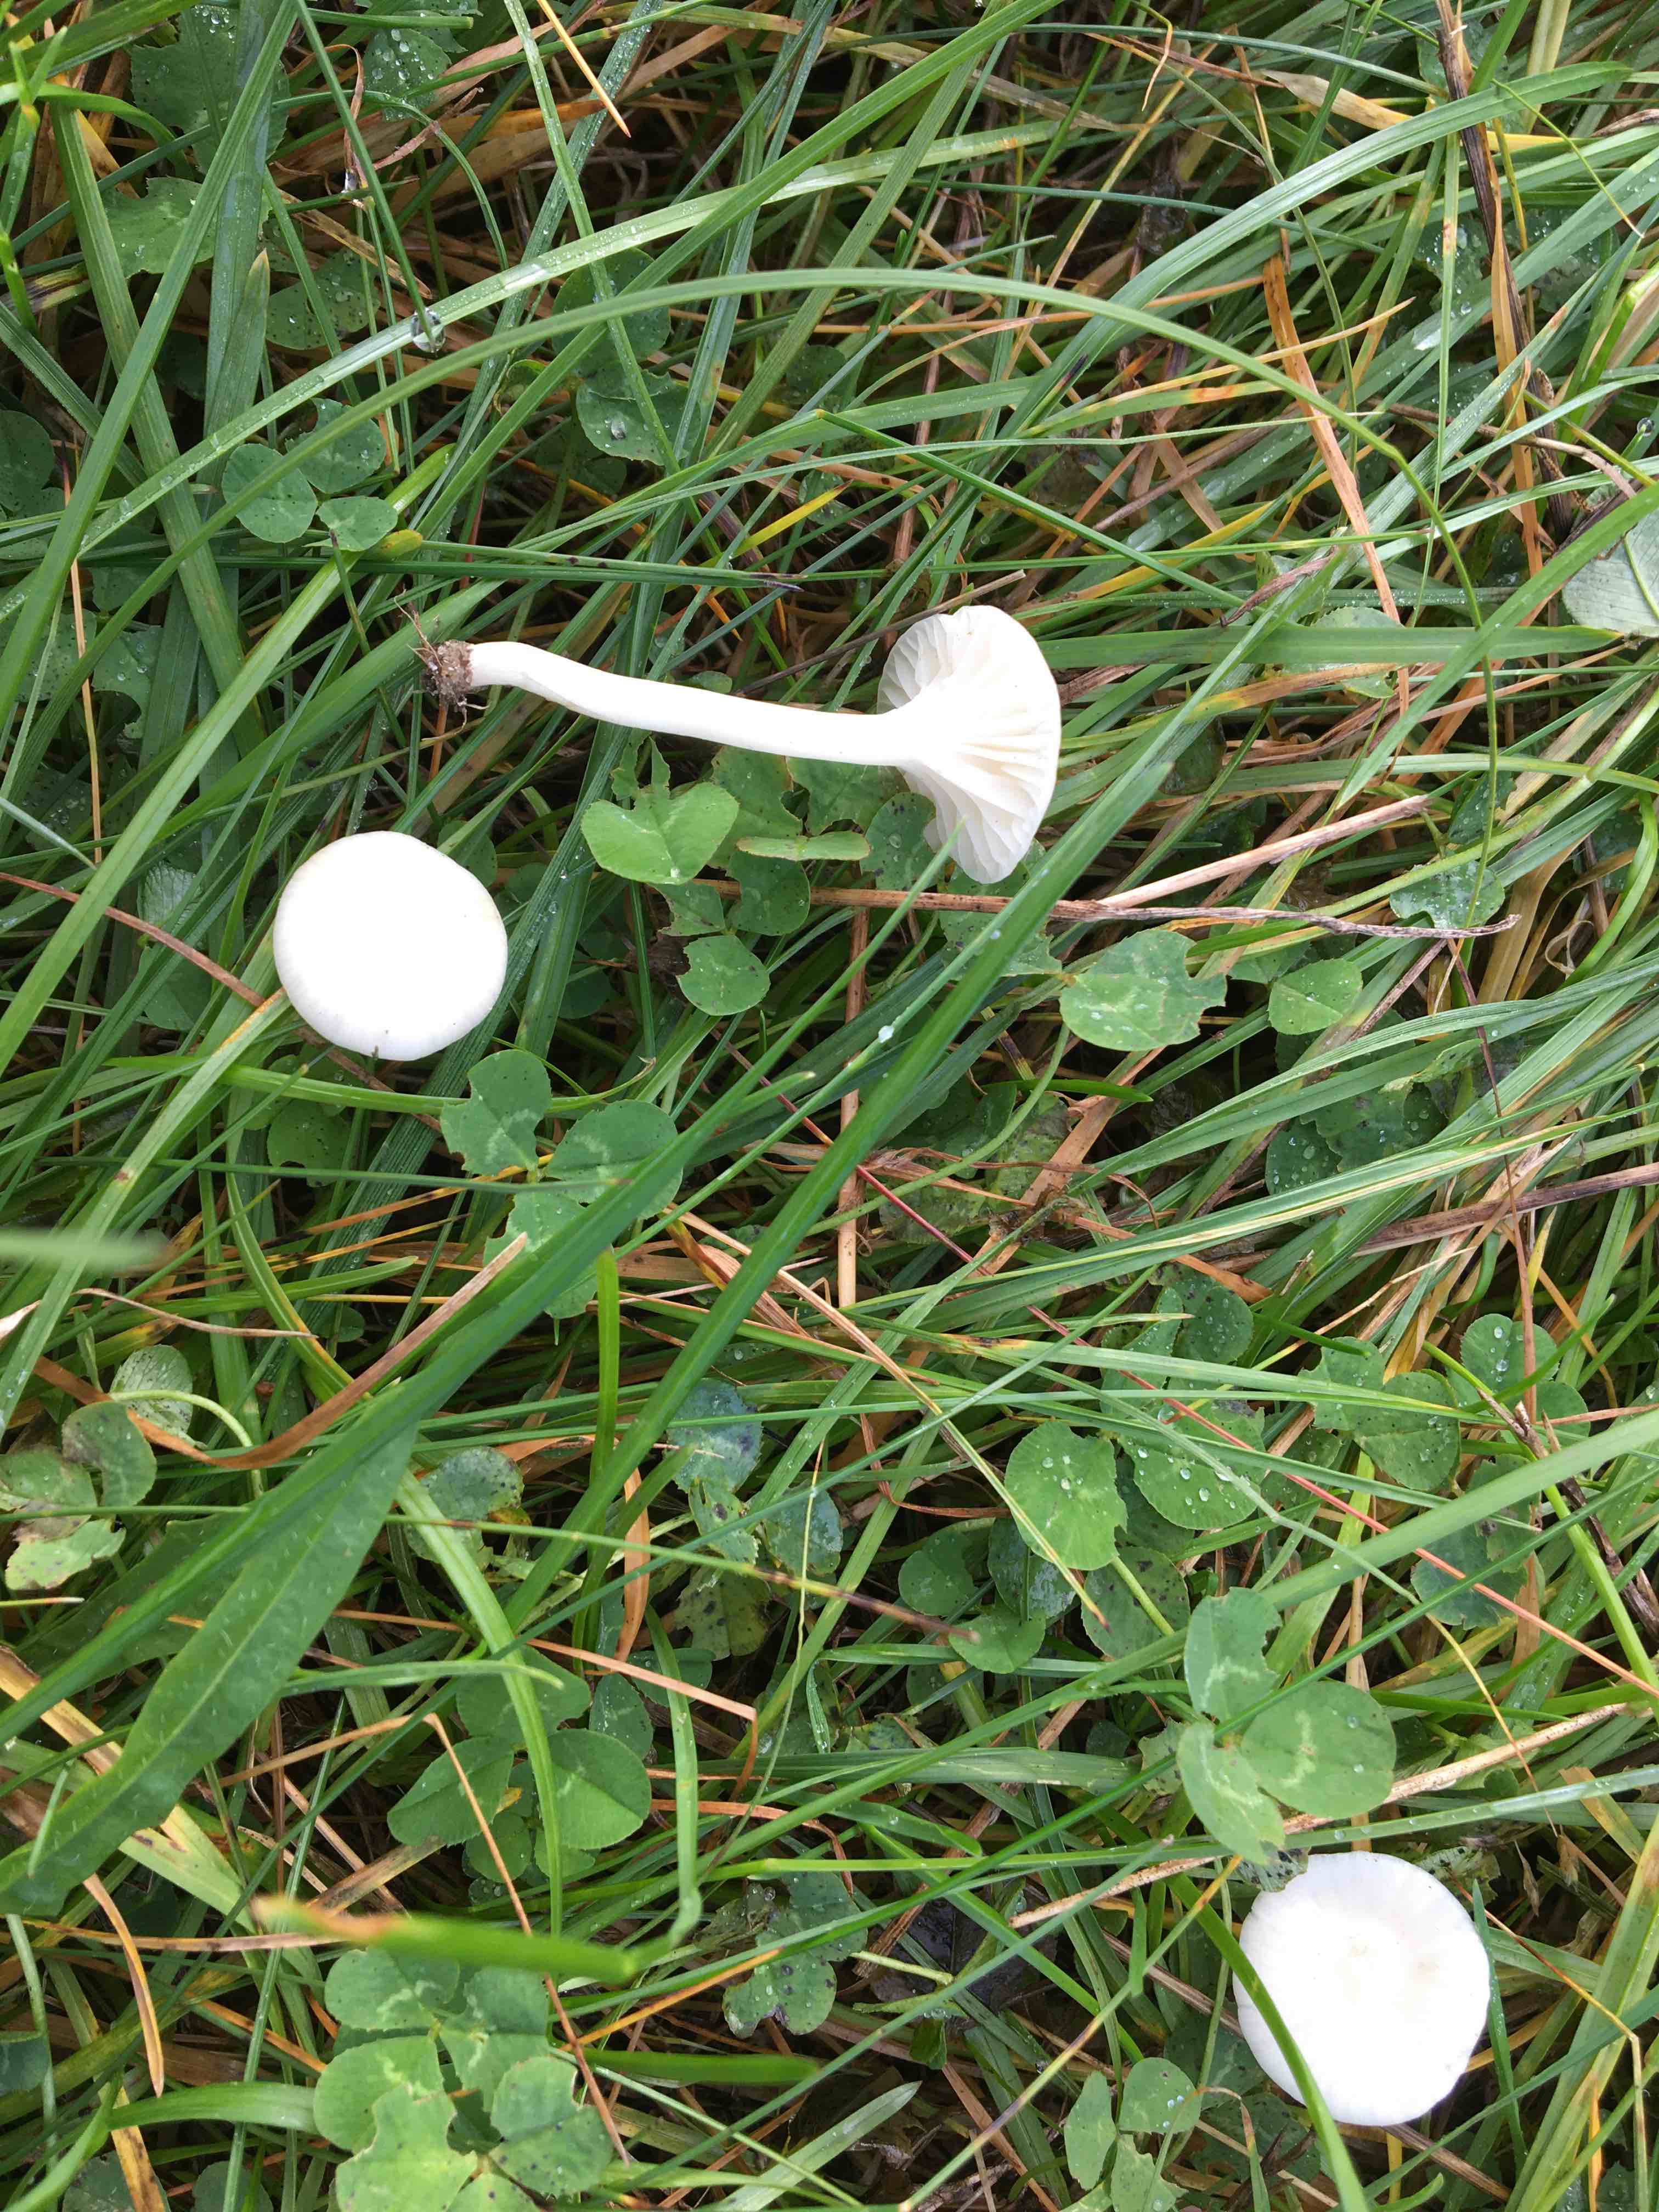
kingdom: Fungi
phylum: Basidiomycota
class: Agaricomycetes
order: Agaricales
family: Hygrophoraceae
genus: Cuphophyllus
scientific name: Cuphophyllus virgineus
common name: snehvid vokshat
